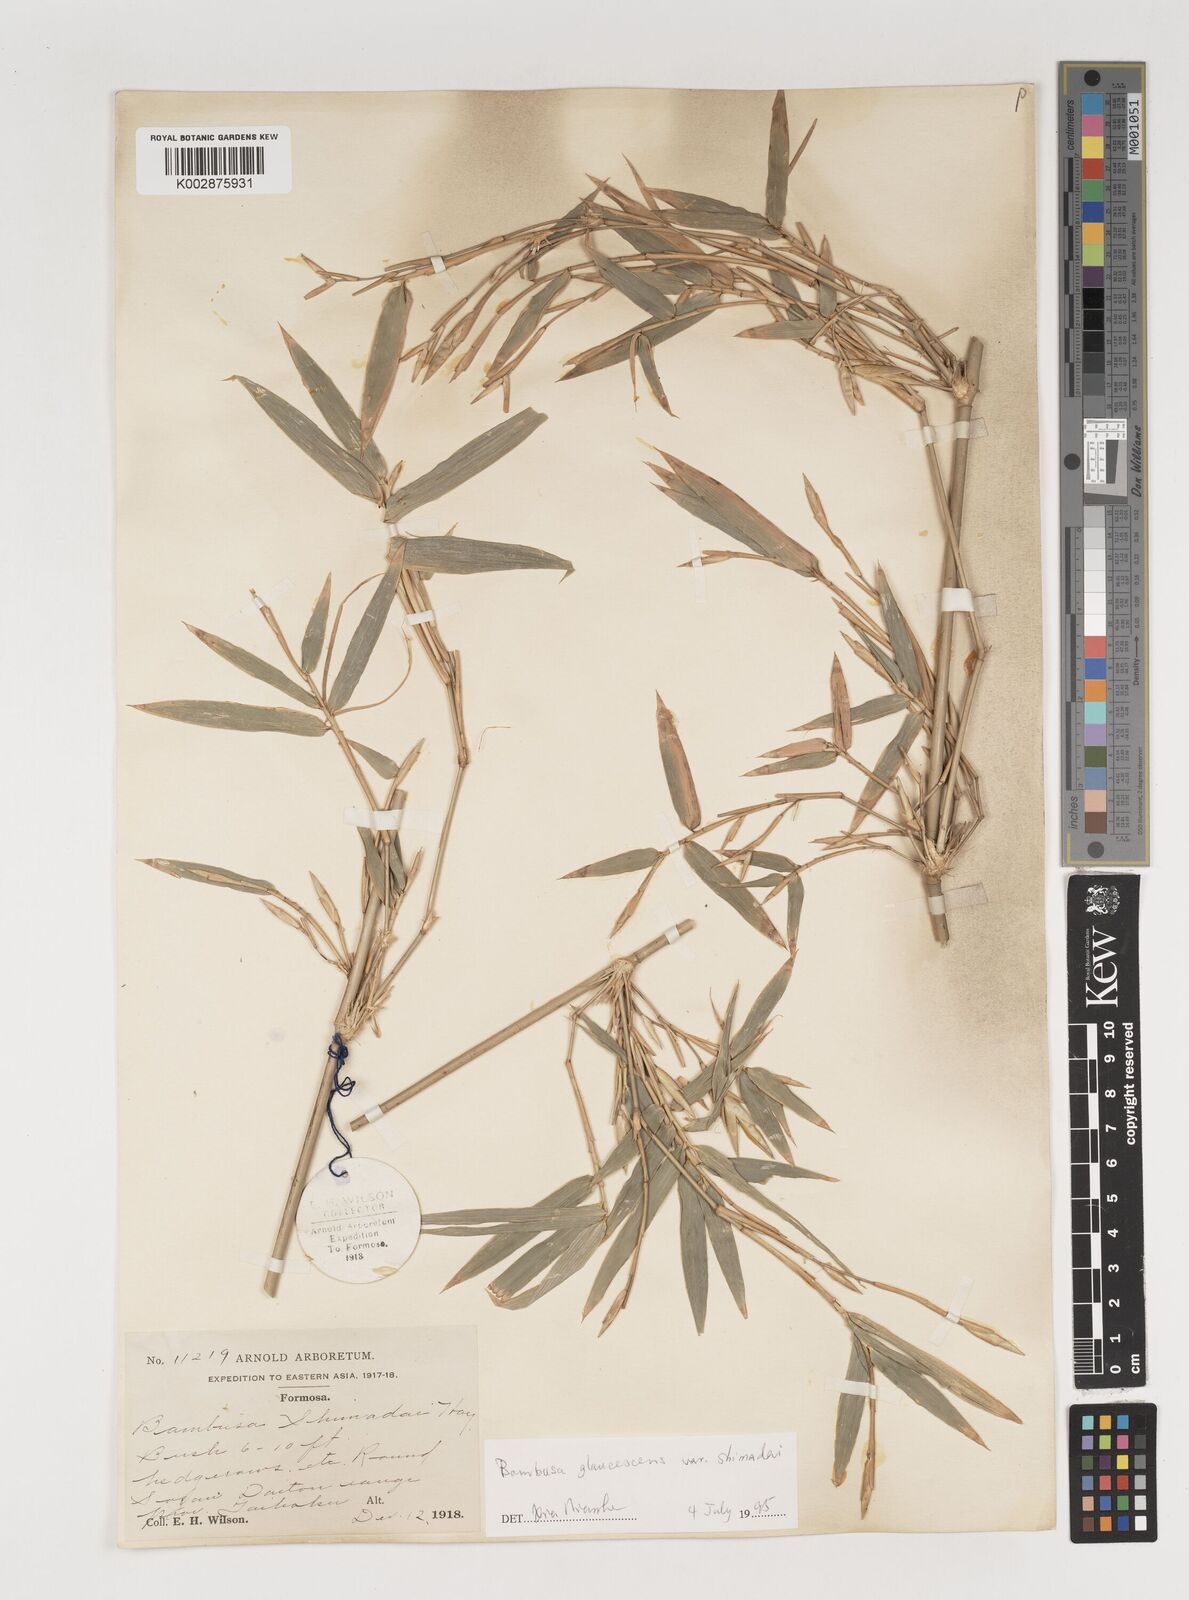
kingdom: Plantae
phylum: Tracheophyta
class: Liliopsida
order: Poales
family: Poaceae
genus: Bambusa
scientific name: Bambusa multiplex
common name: Hedge bamboo
